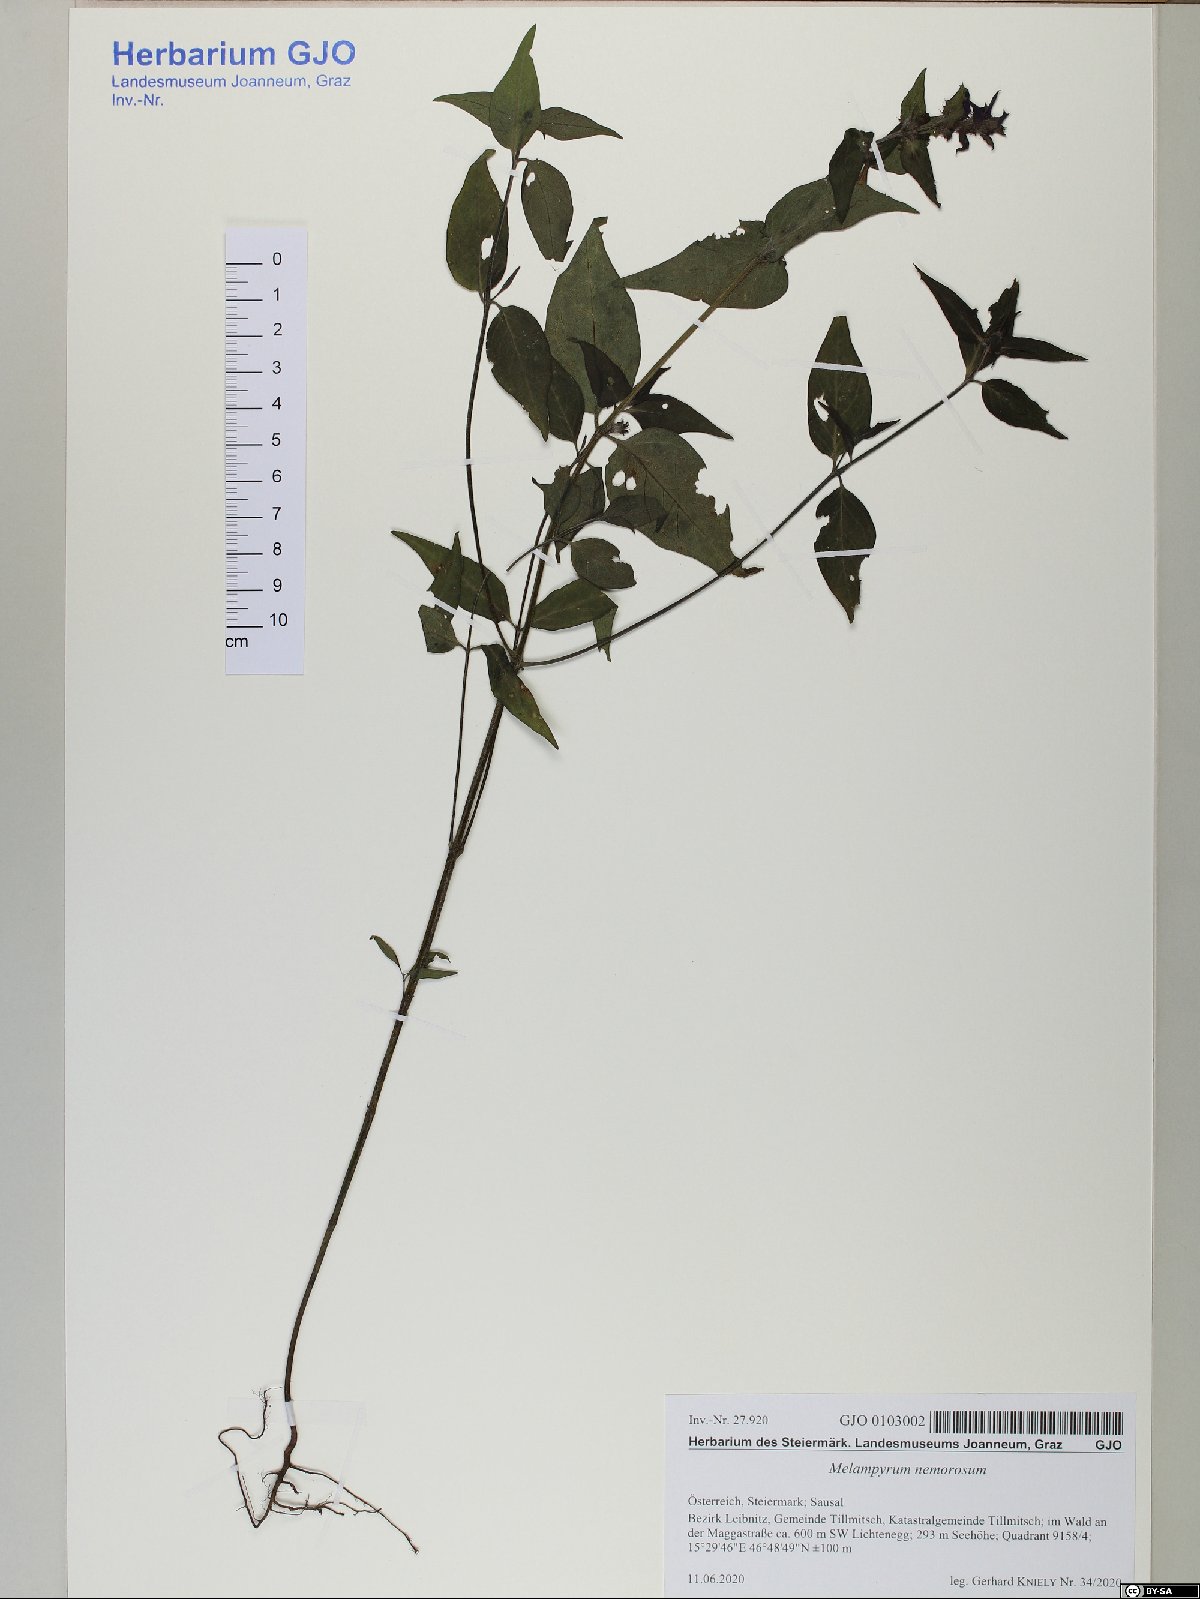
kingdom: Plantae
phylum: Tracheophyta
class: Magnoliopsida
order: Lamiales
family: Orobanchaceae
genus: Melampyrum
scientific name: Melampyrum nemorosum
